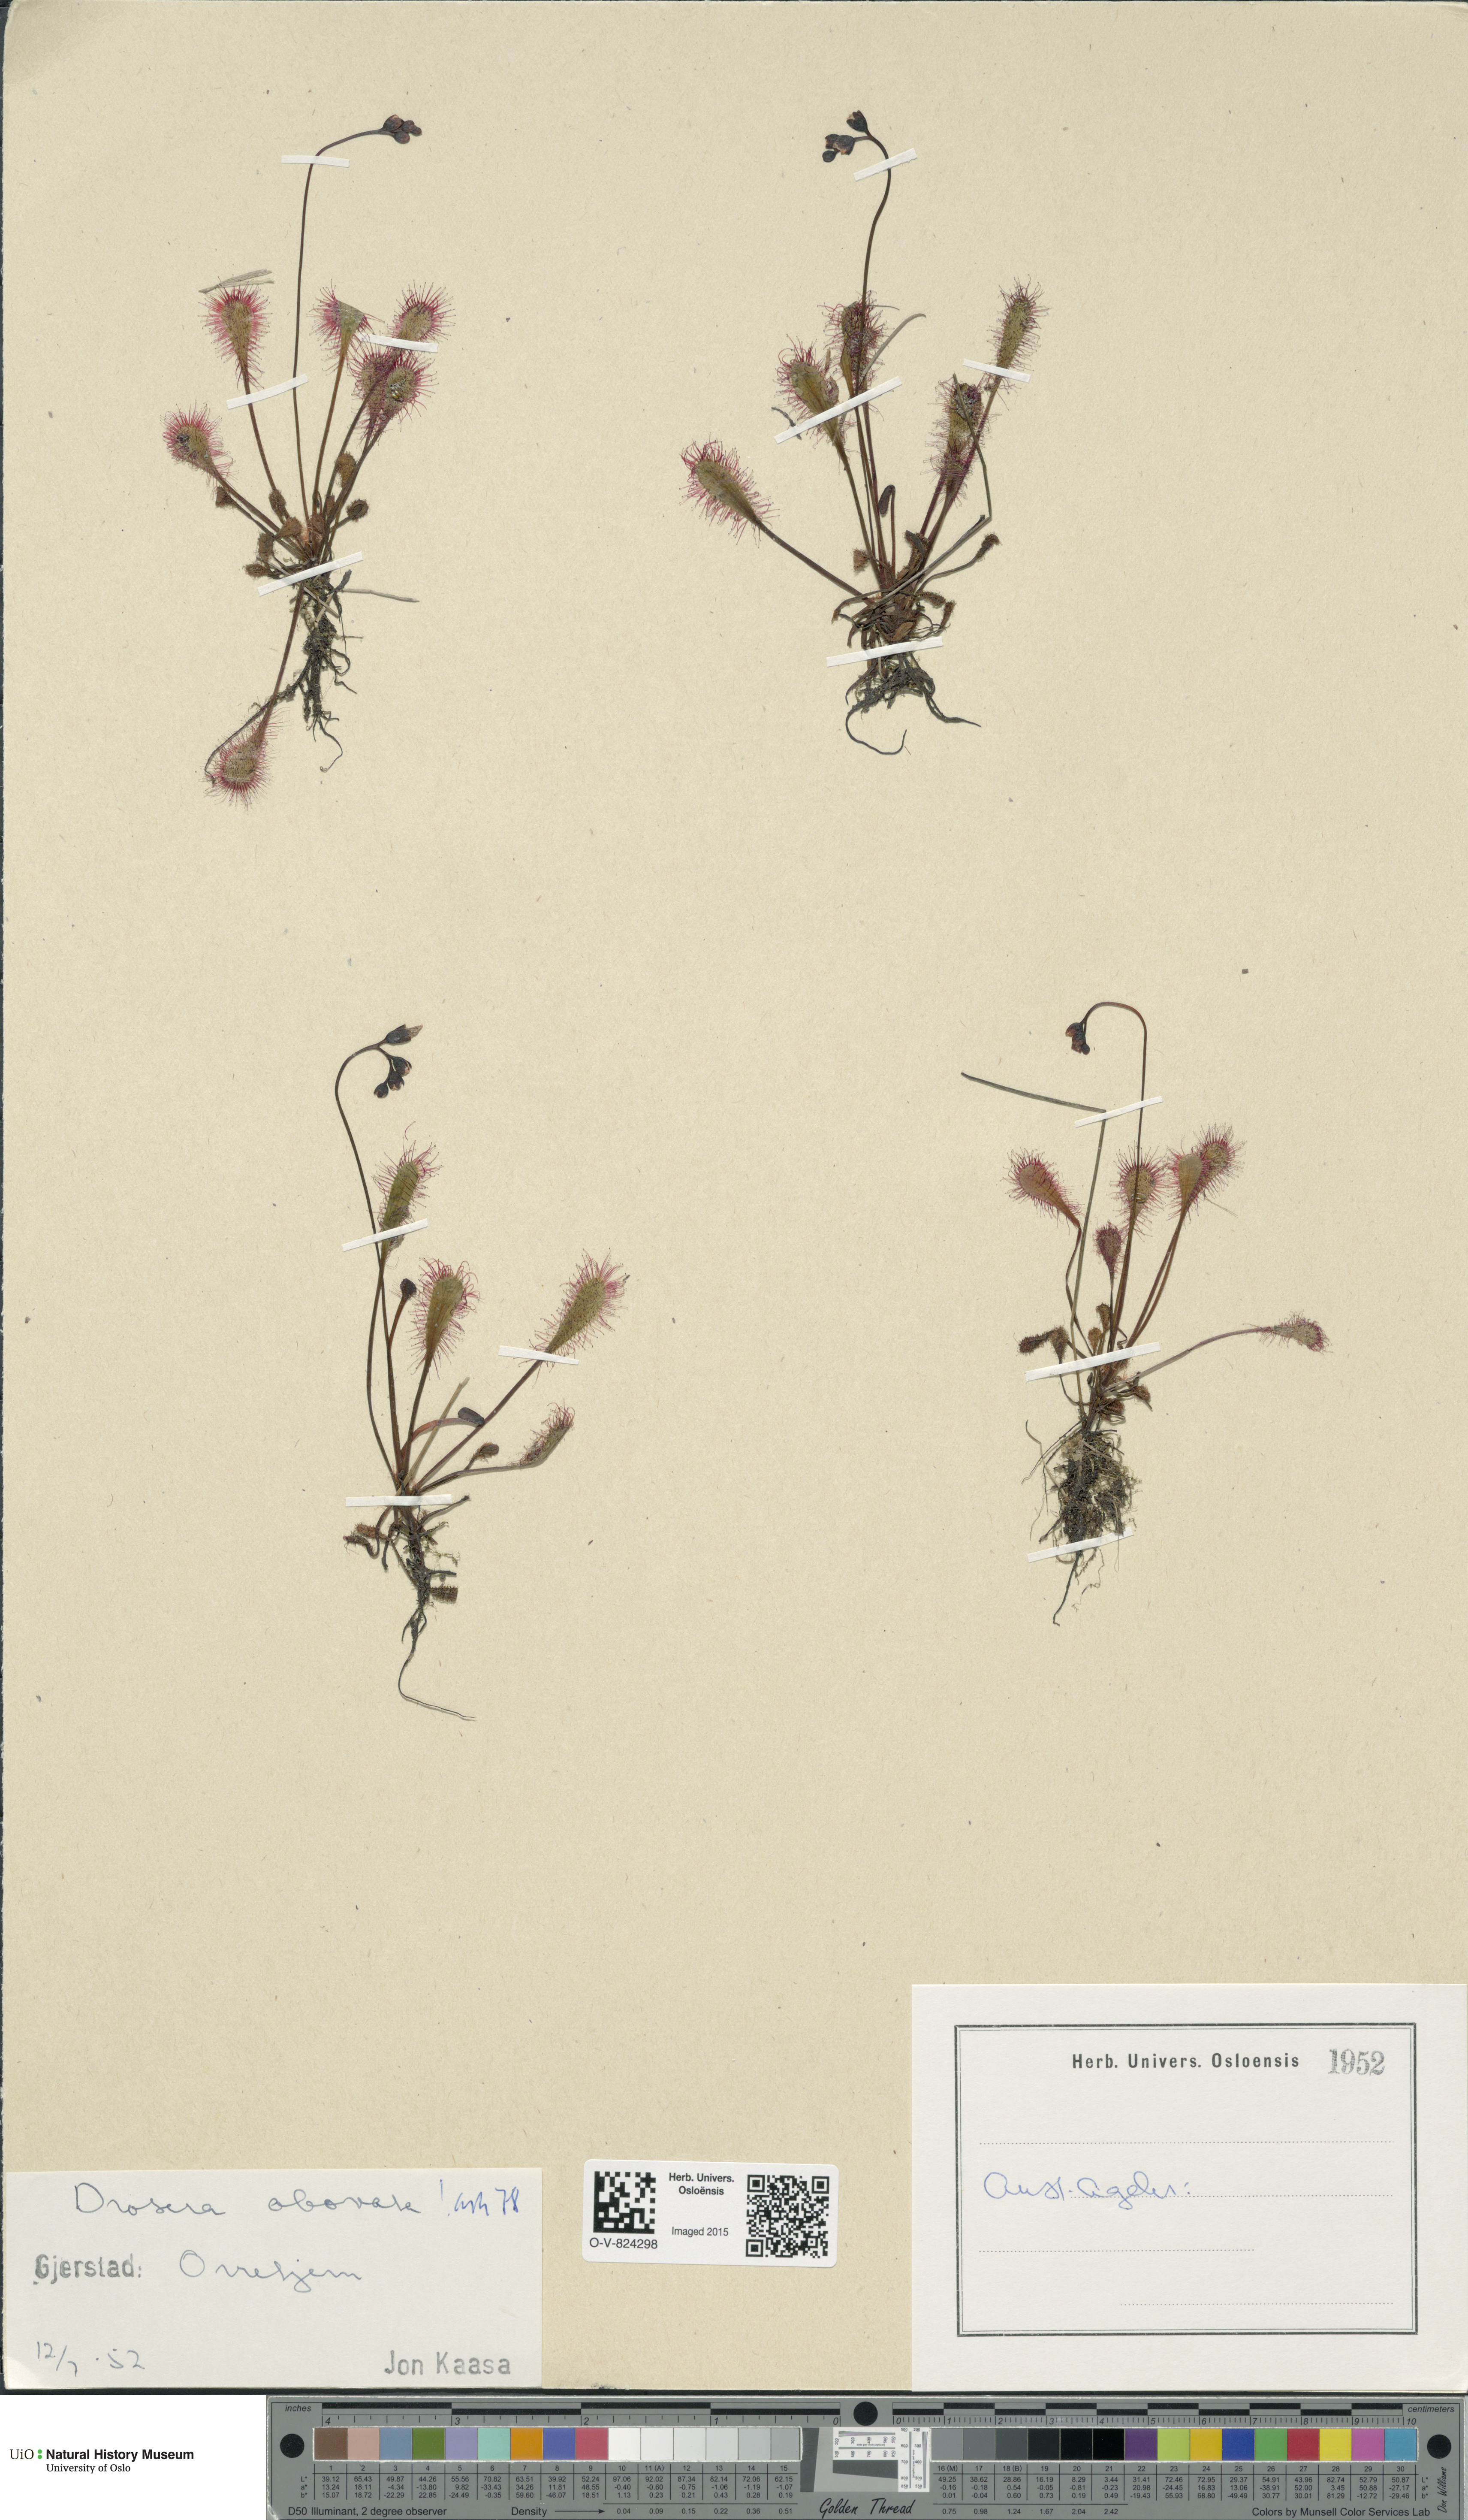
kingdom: Plantae
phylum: Tracheophyta
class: Magnoliopsida
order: Caryophyllales
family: Droseraceae
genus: Drosera
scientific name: Drosera
